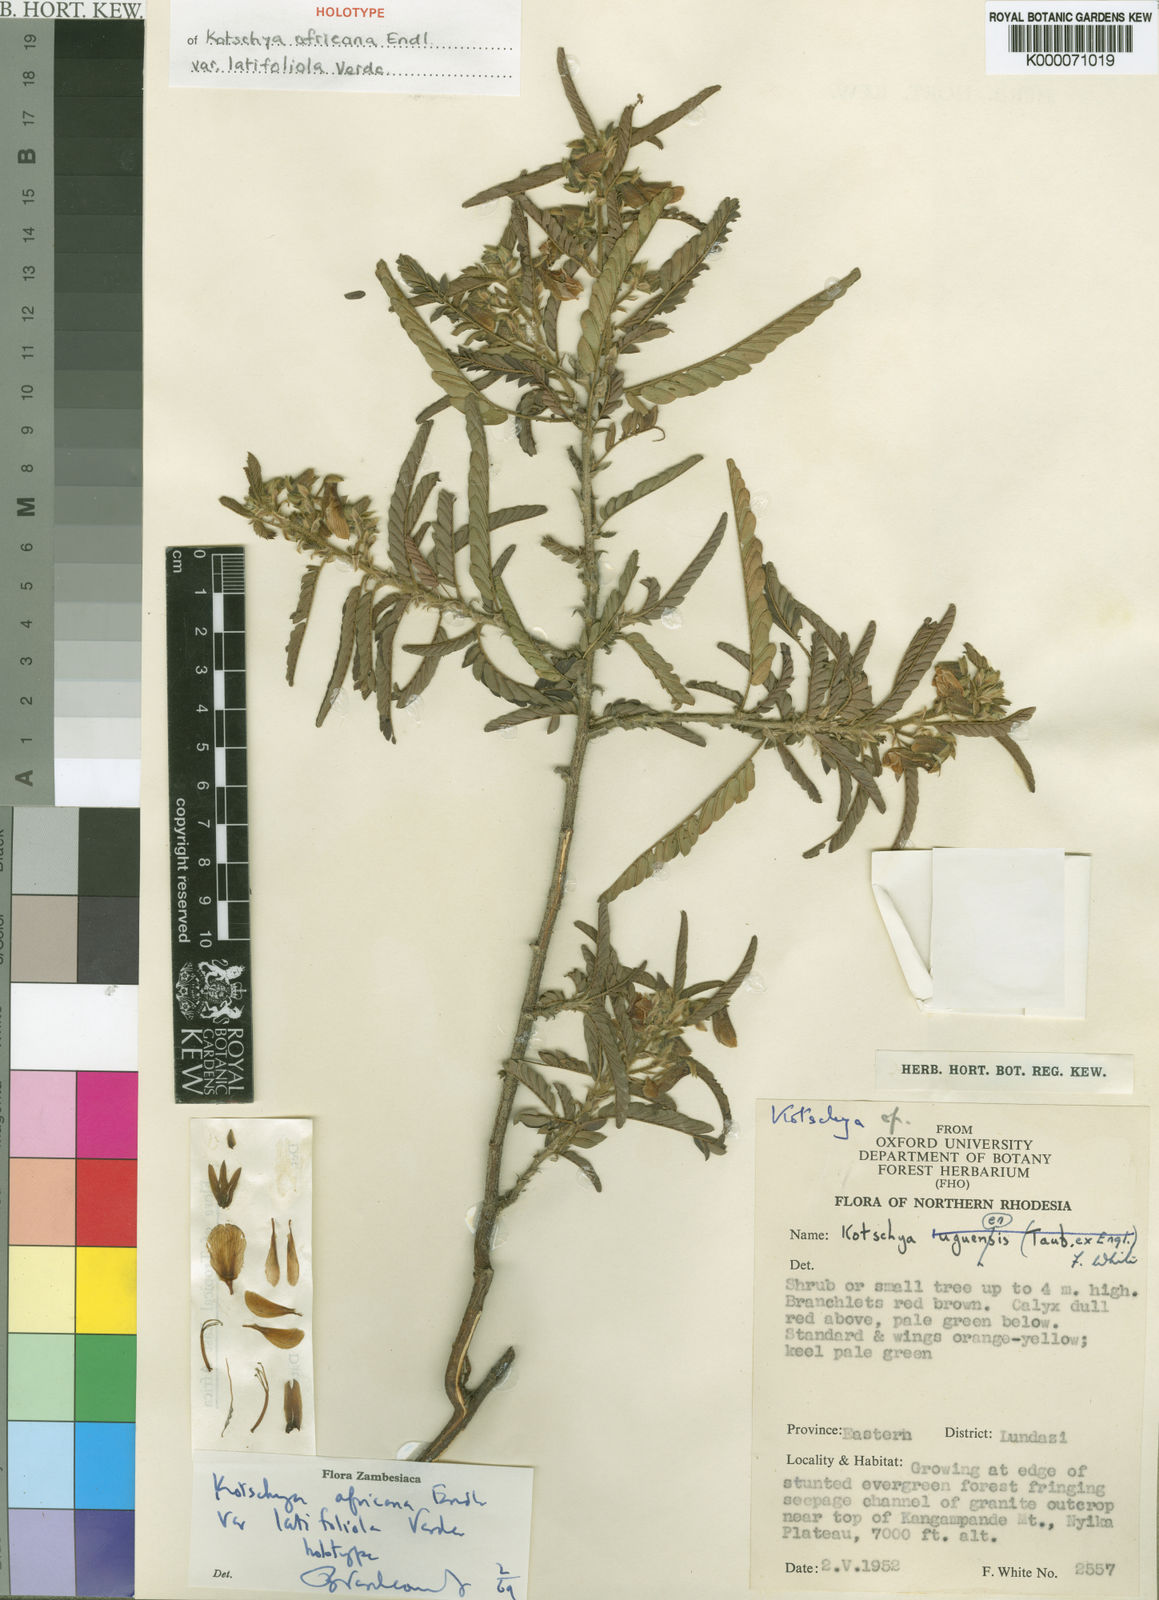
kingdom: Plantae
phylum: Tracheophyta
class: Magnoliopsida
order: Fabales
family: Fabaceae
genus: Kotschya
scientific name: Kotschya africana
